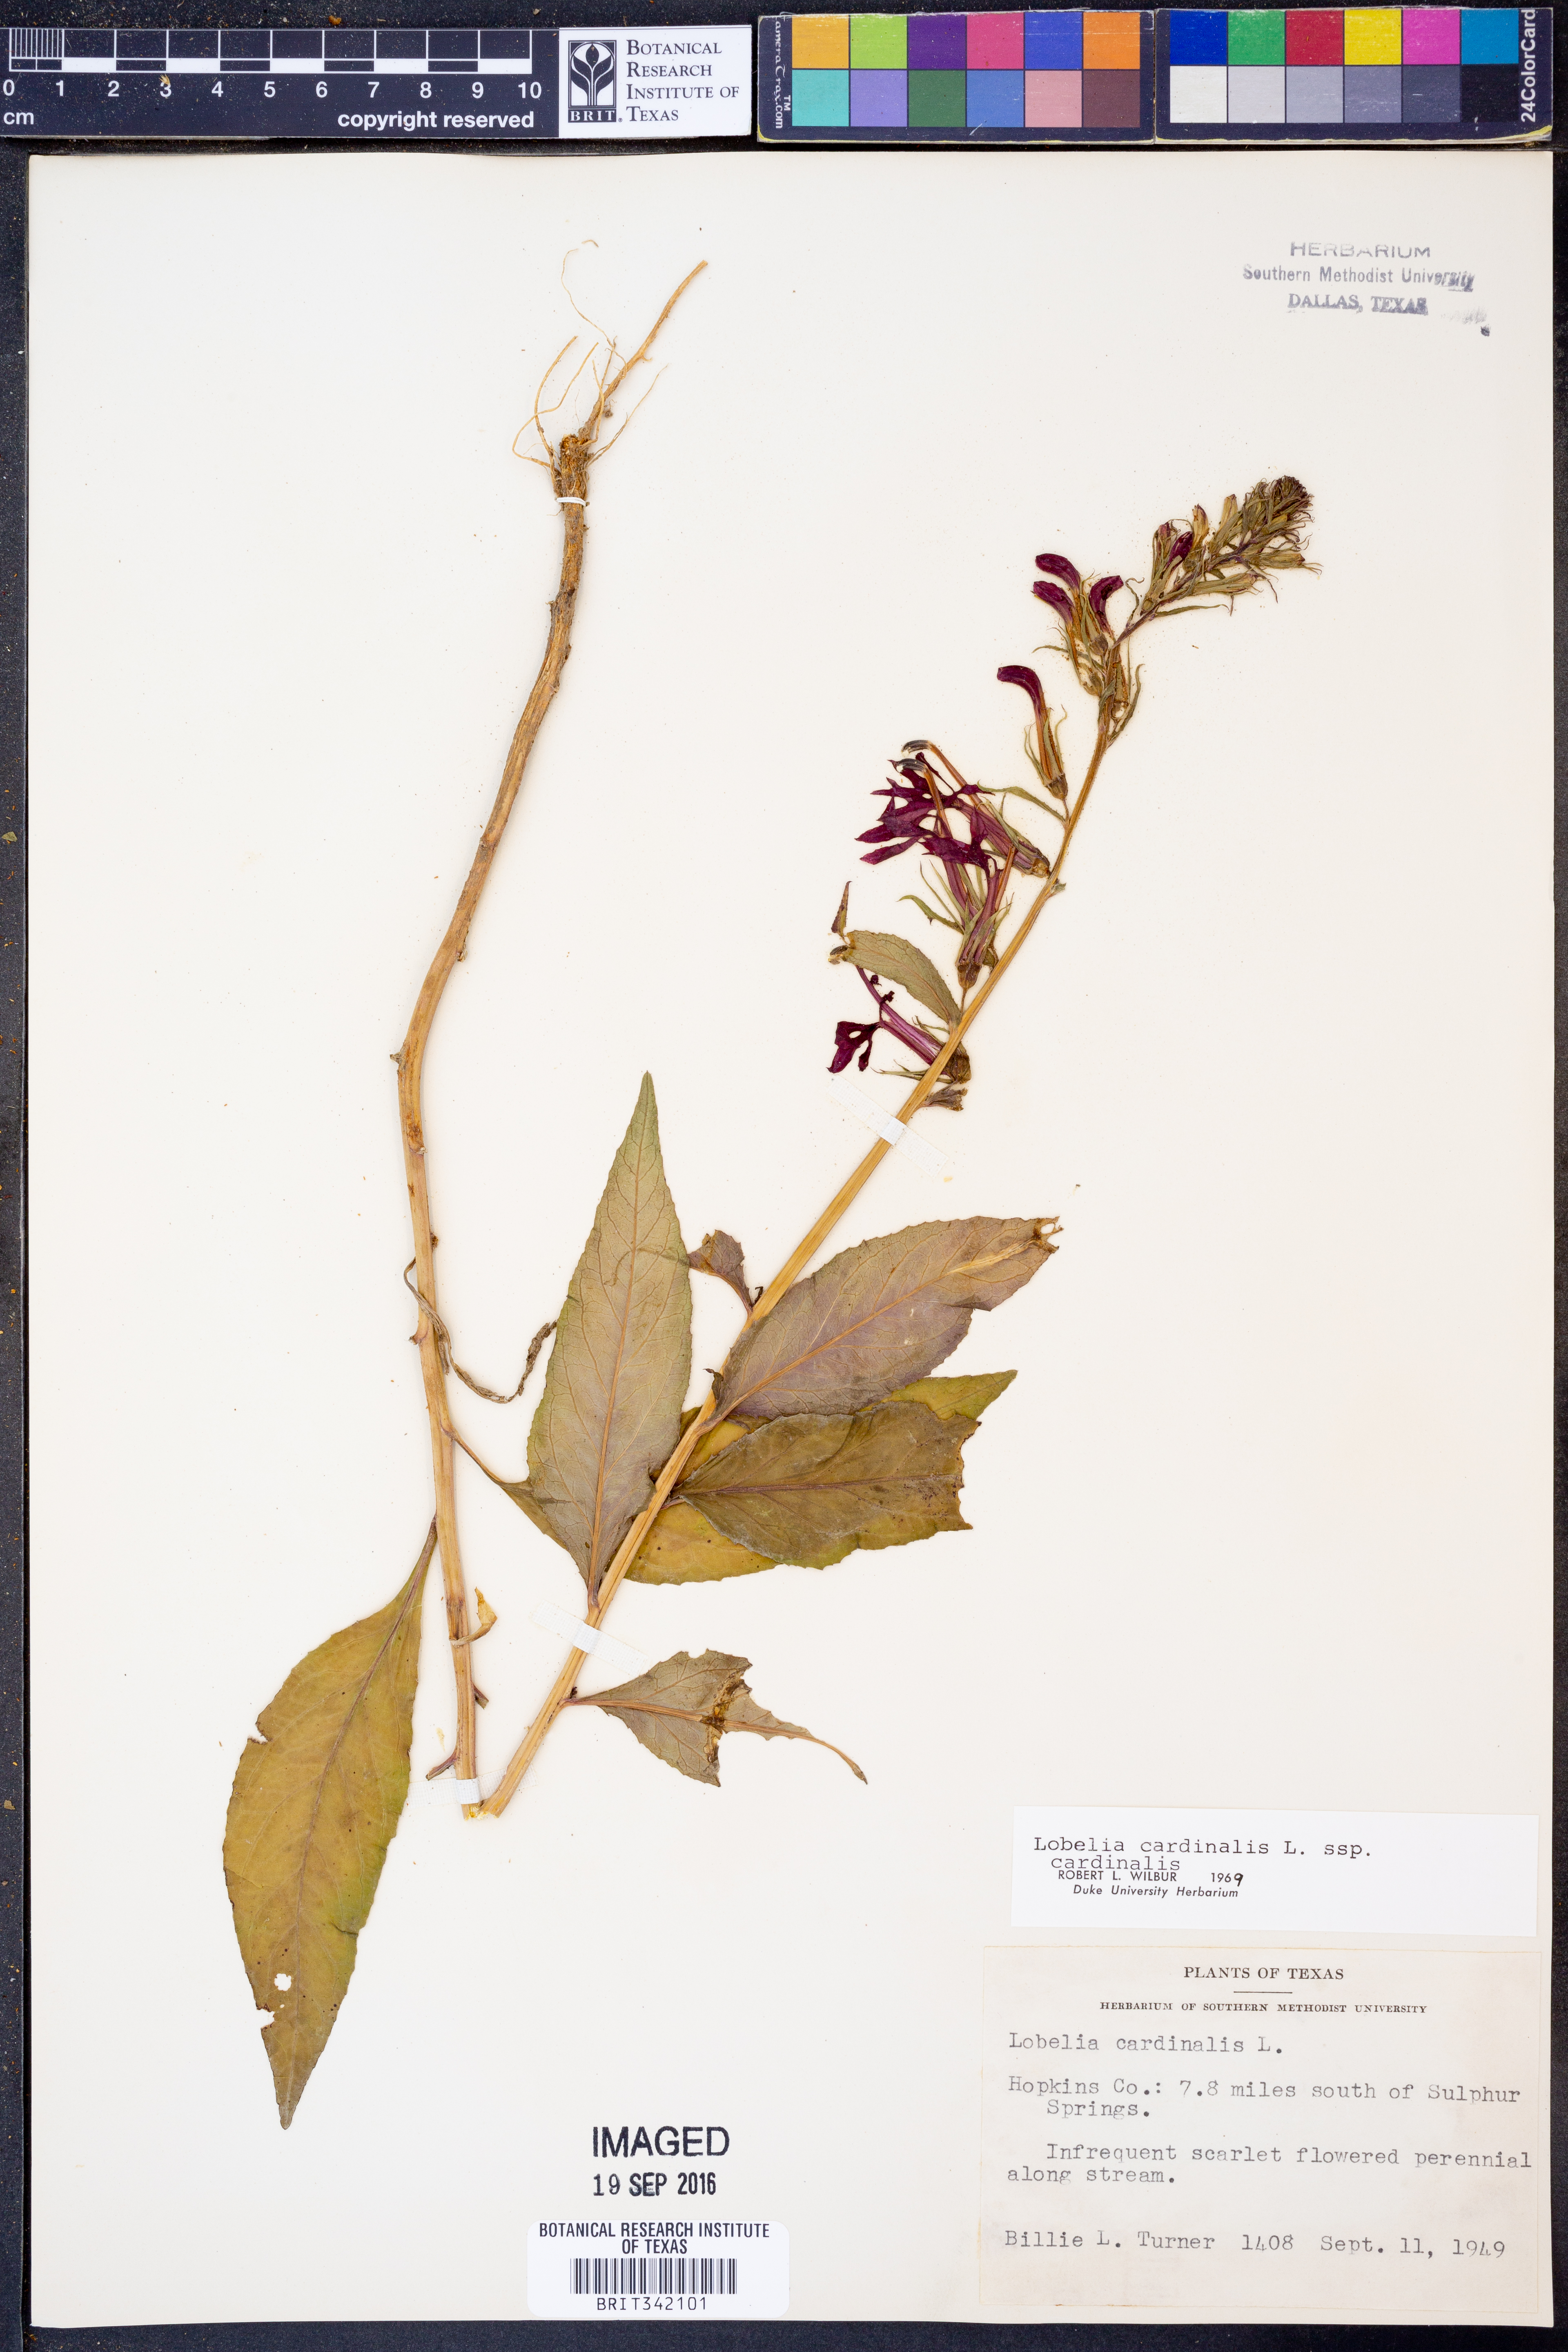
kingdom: Plantae
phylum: Tracheophyta
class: Magnoliopsida
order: Asterales
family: Campanulaceae
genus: Lobelia
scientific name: Lobelia cardinalis
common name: Cardinal flower
